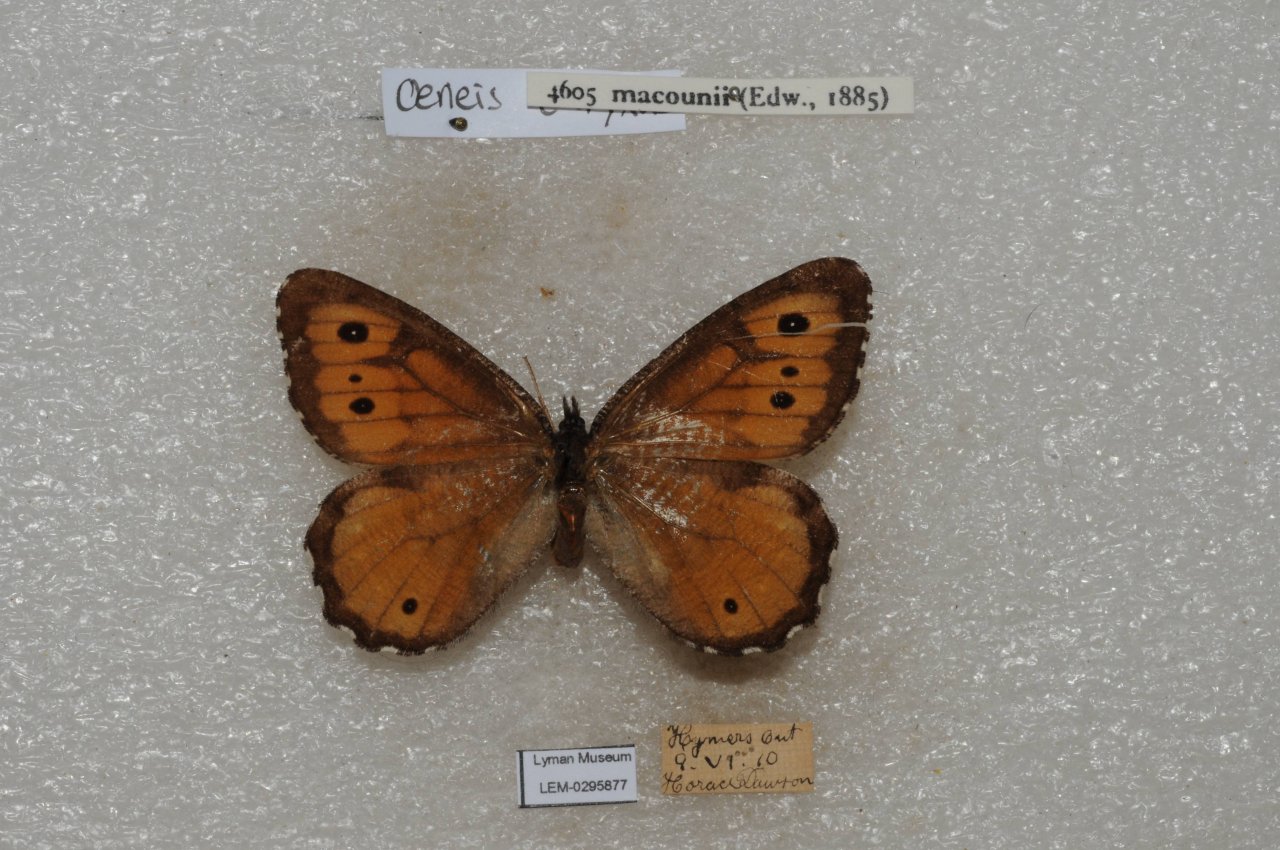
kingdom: Animalia
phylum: Arthropoda
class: Insecta
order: Lepidoptera
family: Nymphalidae
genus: Oeneis
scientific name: Oeneis macounii
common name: Macoun's Arctic
